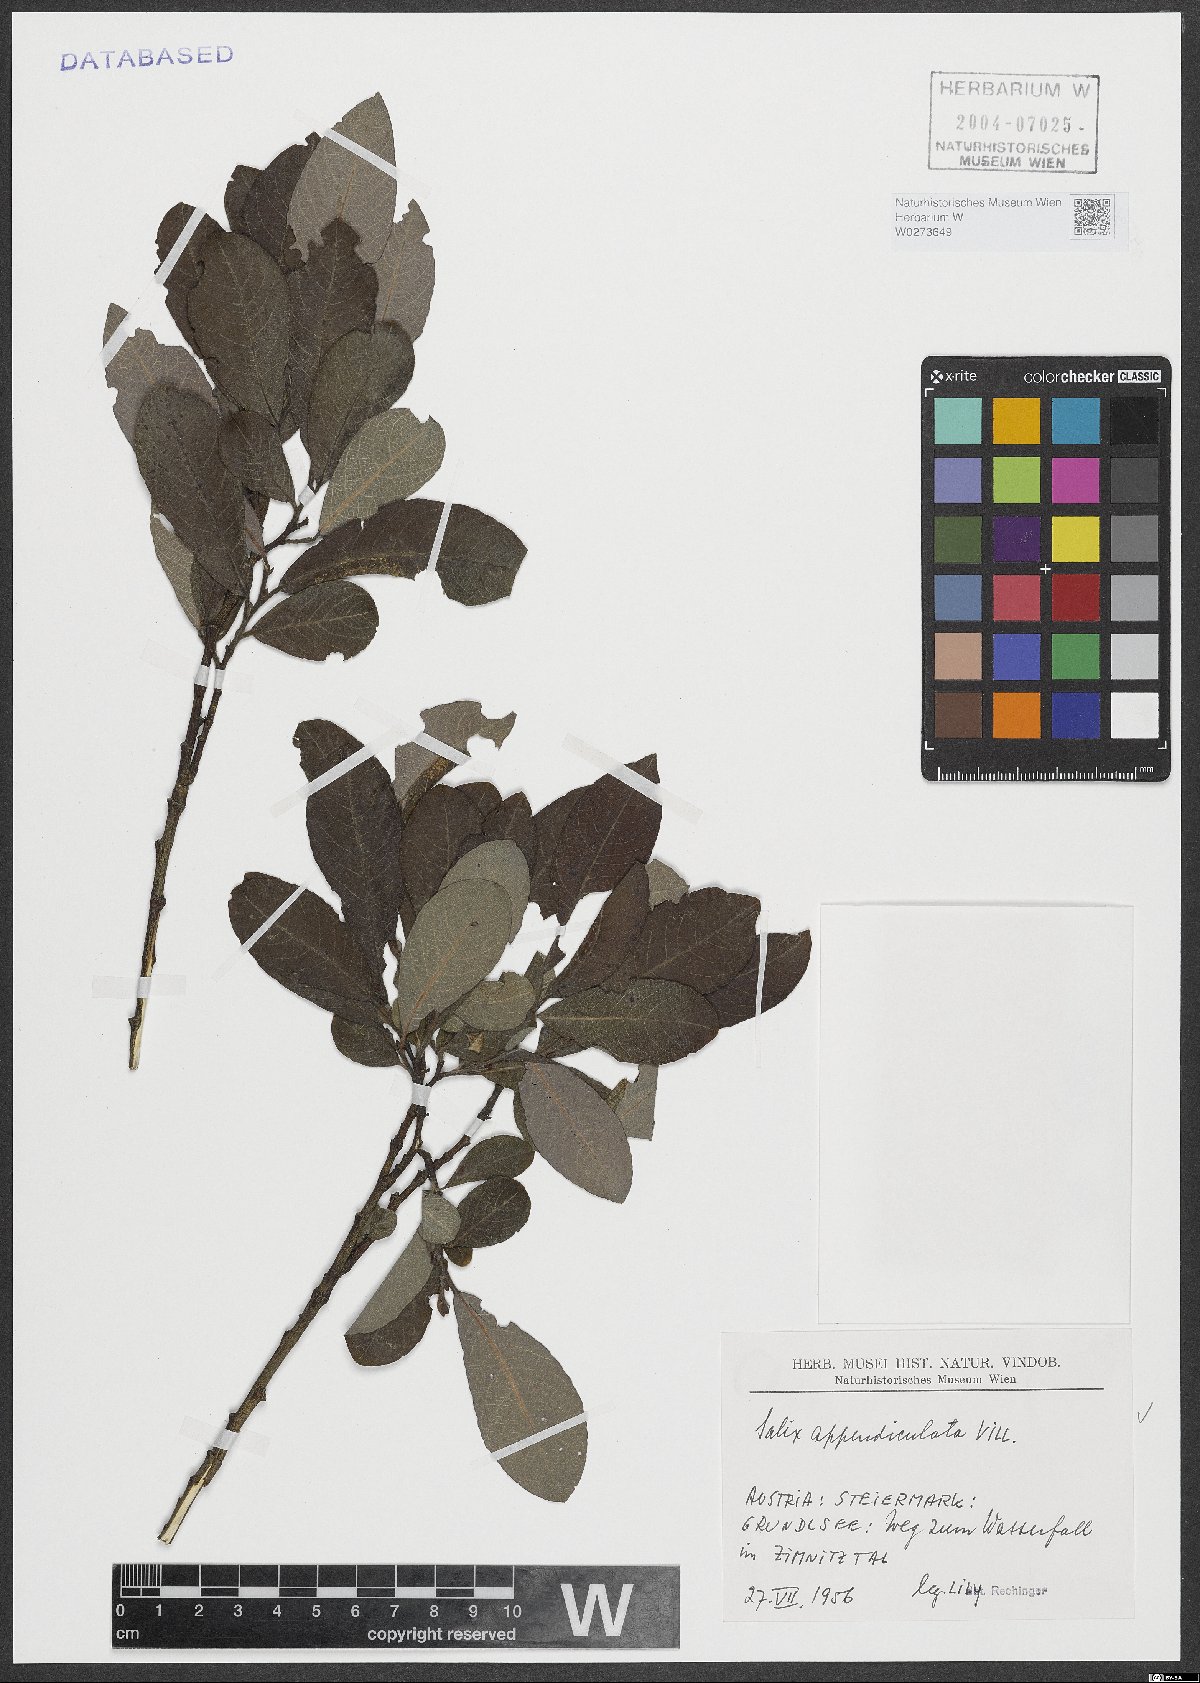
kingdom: Plantae
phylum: Tracheophyta
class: Magnoliopsida
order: Malpighiales
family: Salicaceae
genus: Salix
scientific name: Salix appendiculata
